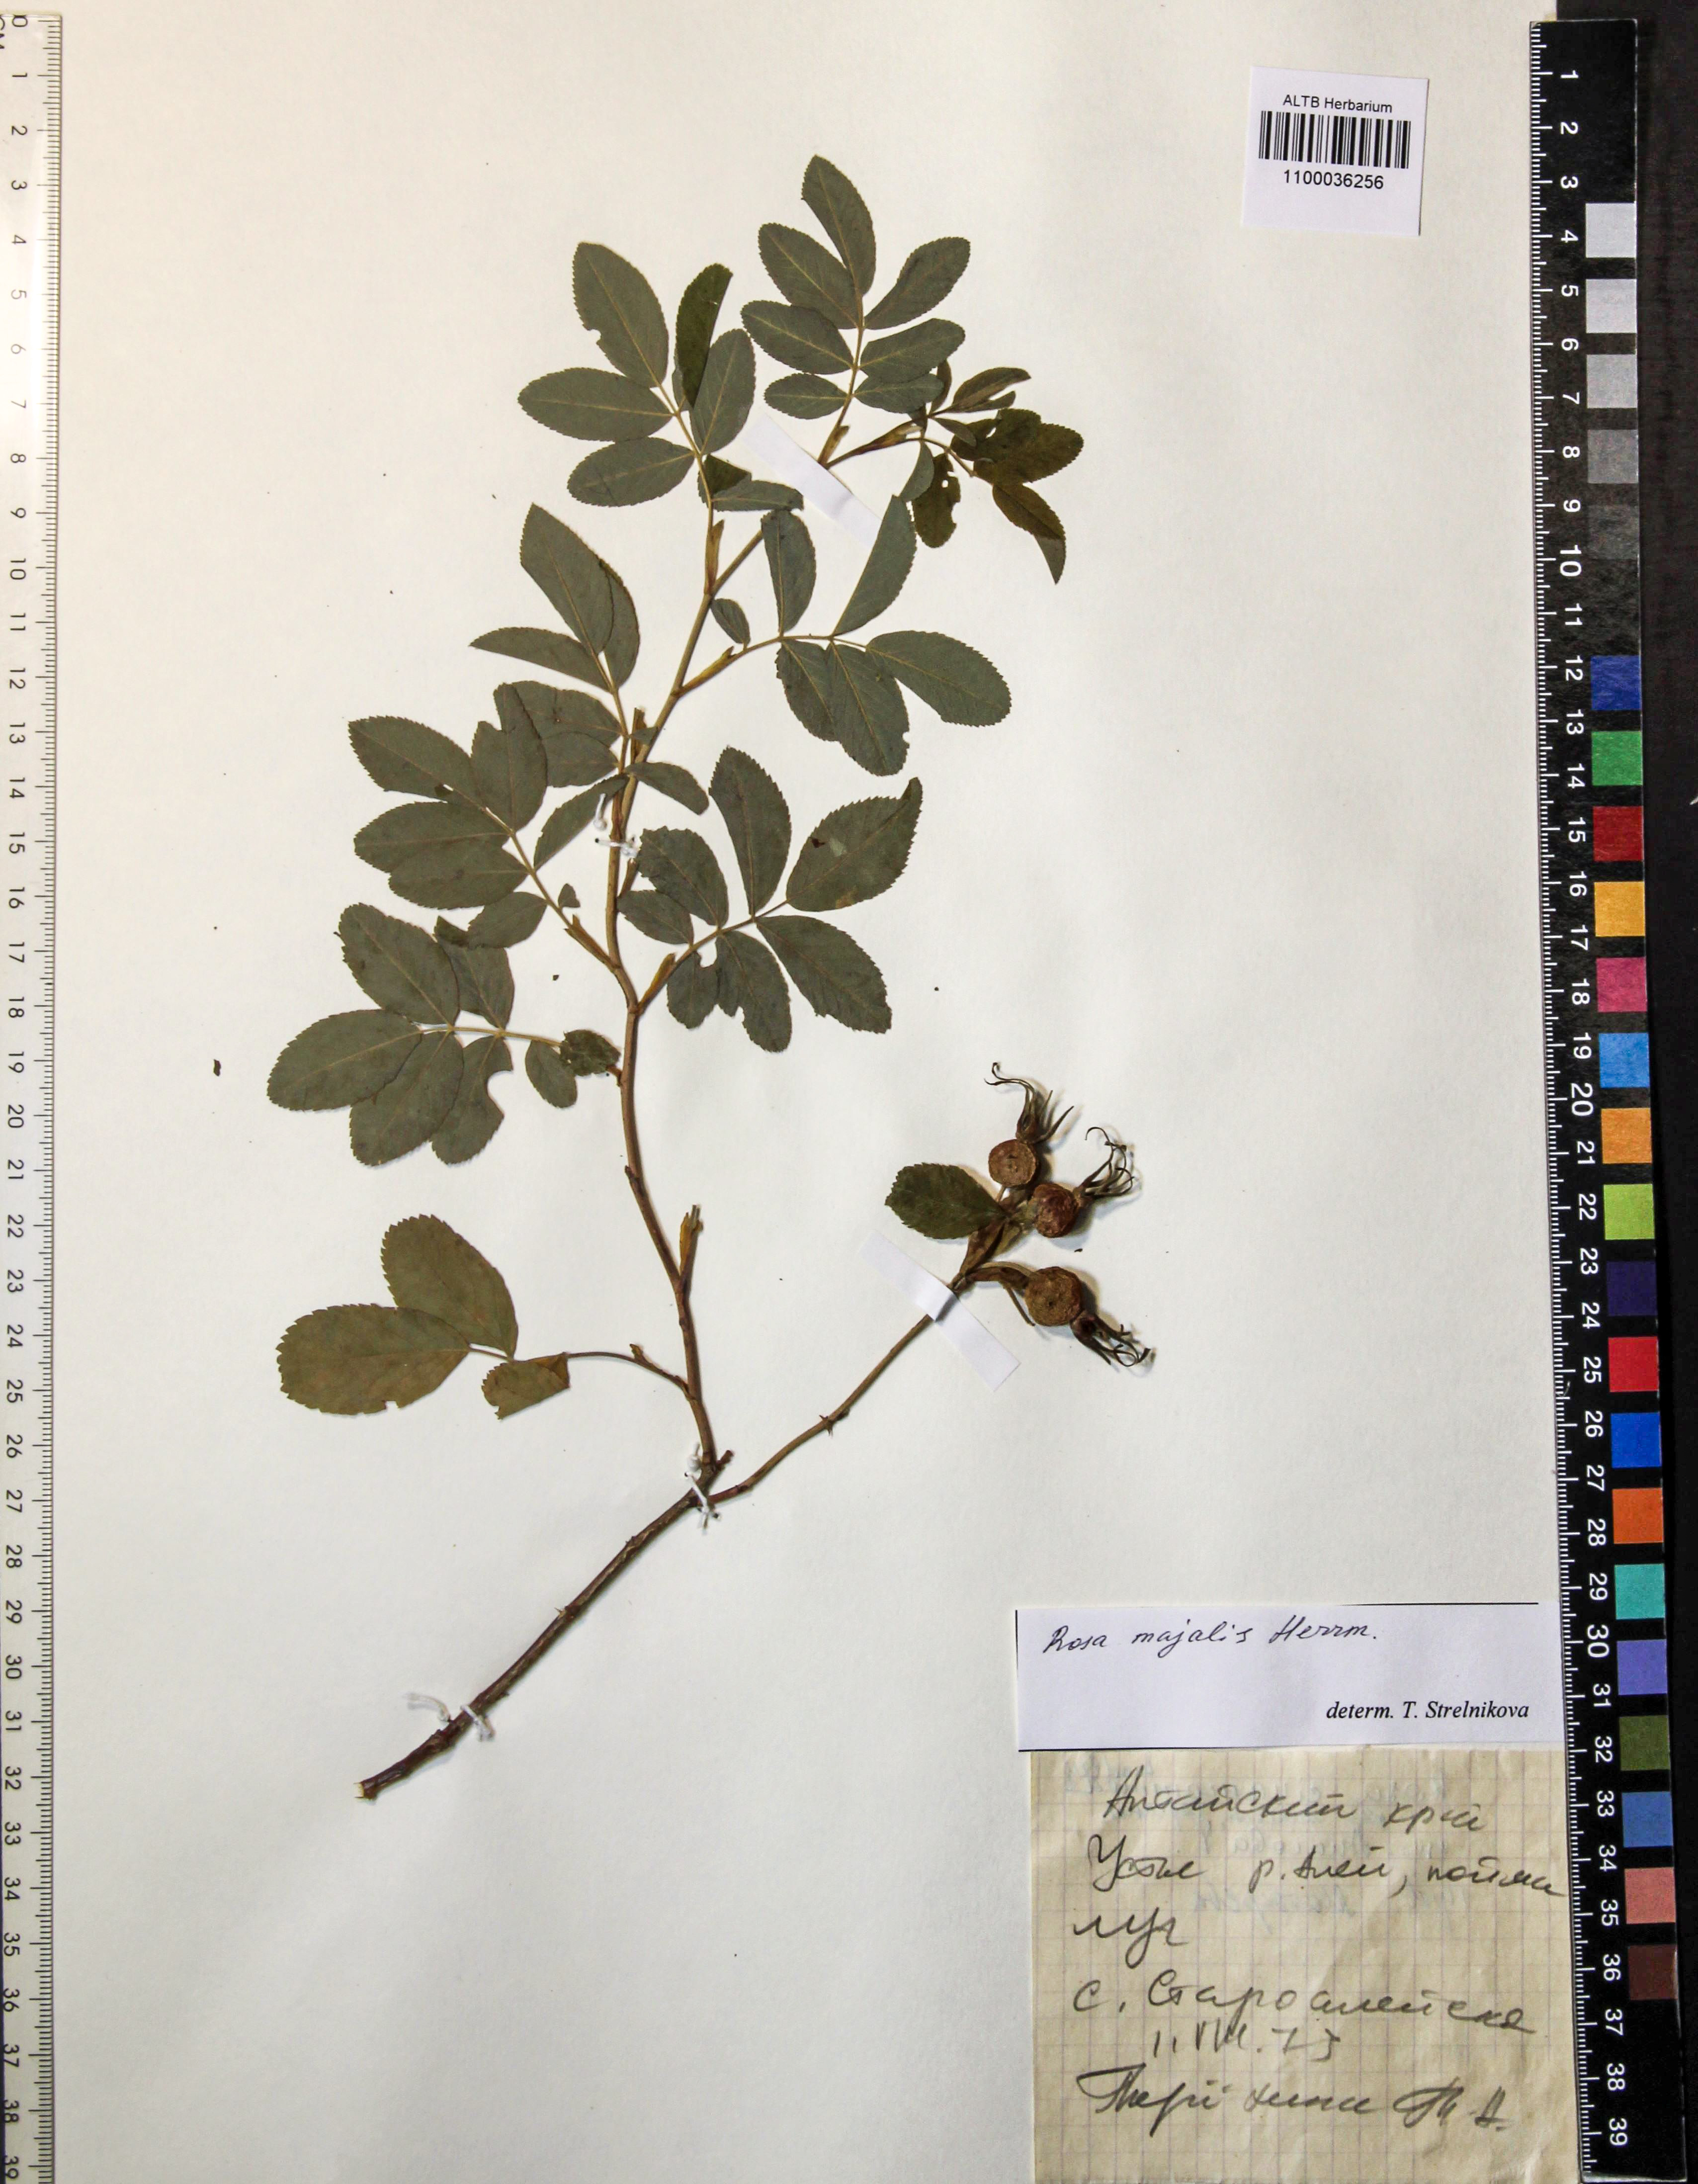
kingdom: Plantae
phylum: Tracheophyta
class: Magnoliopsida
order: Rosales
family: Rosaceae
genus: Rosa
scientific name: Rosa majalis
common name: Cinnamon rose
